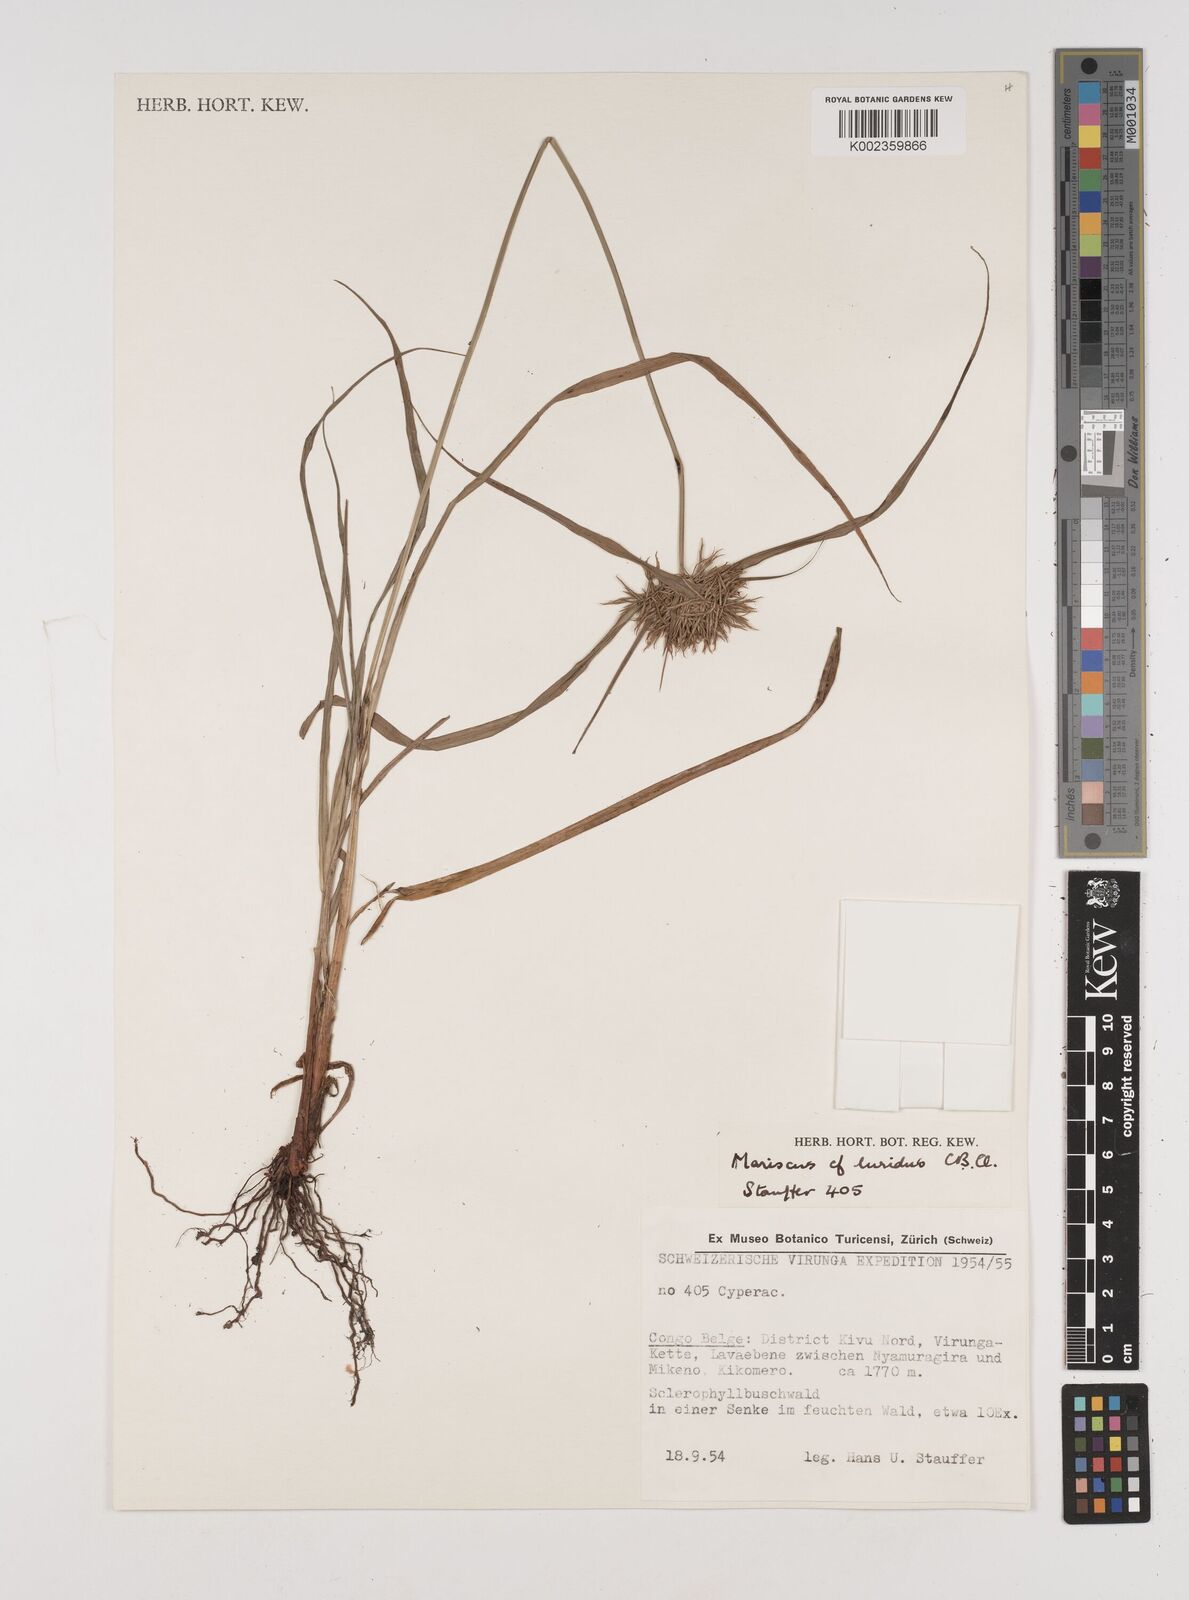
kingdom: Plantae
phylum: Tracheophyta
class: Liliopsida
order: Poales
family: Cyperaceae
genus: Cyperus
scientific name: Cyperus tenuis
